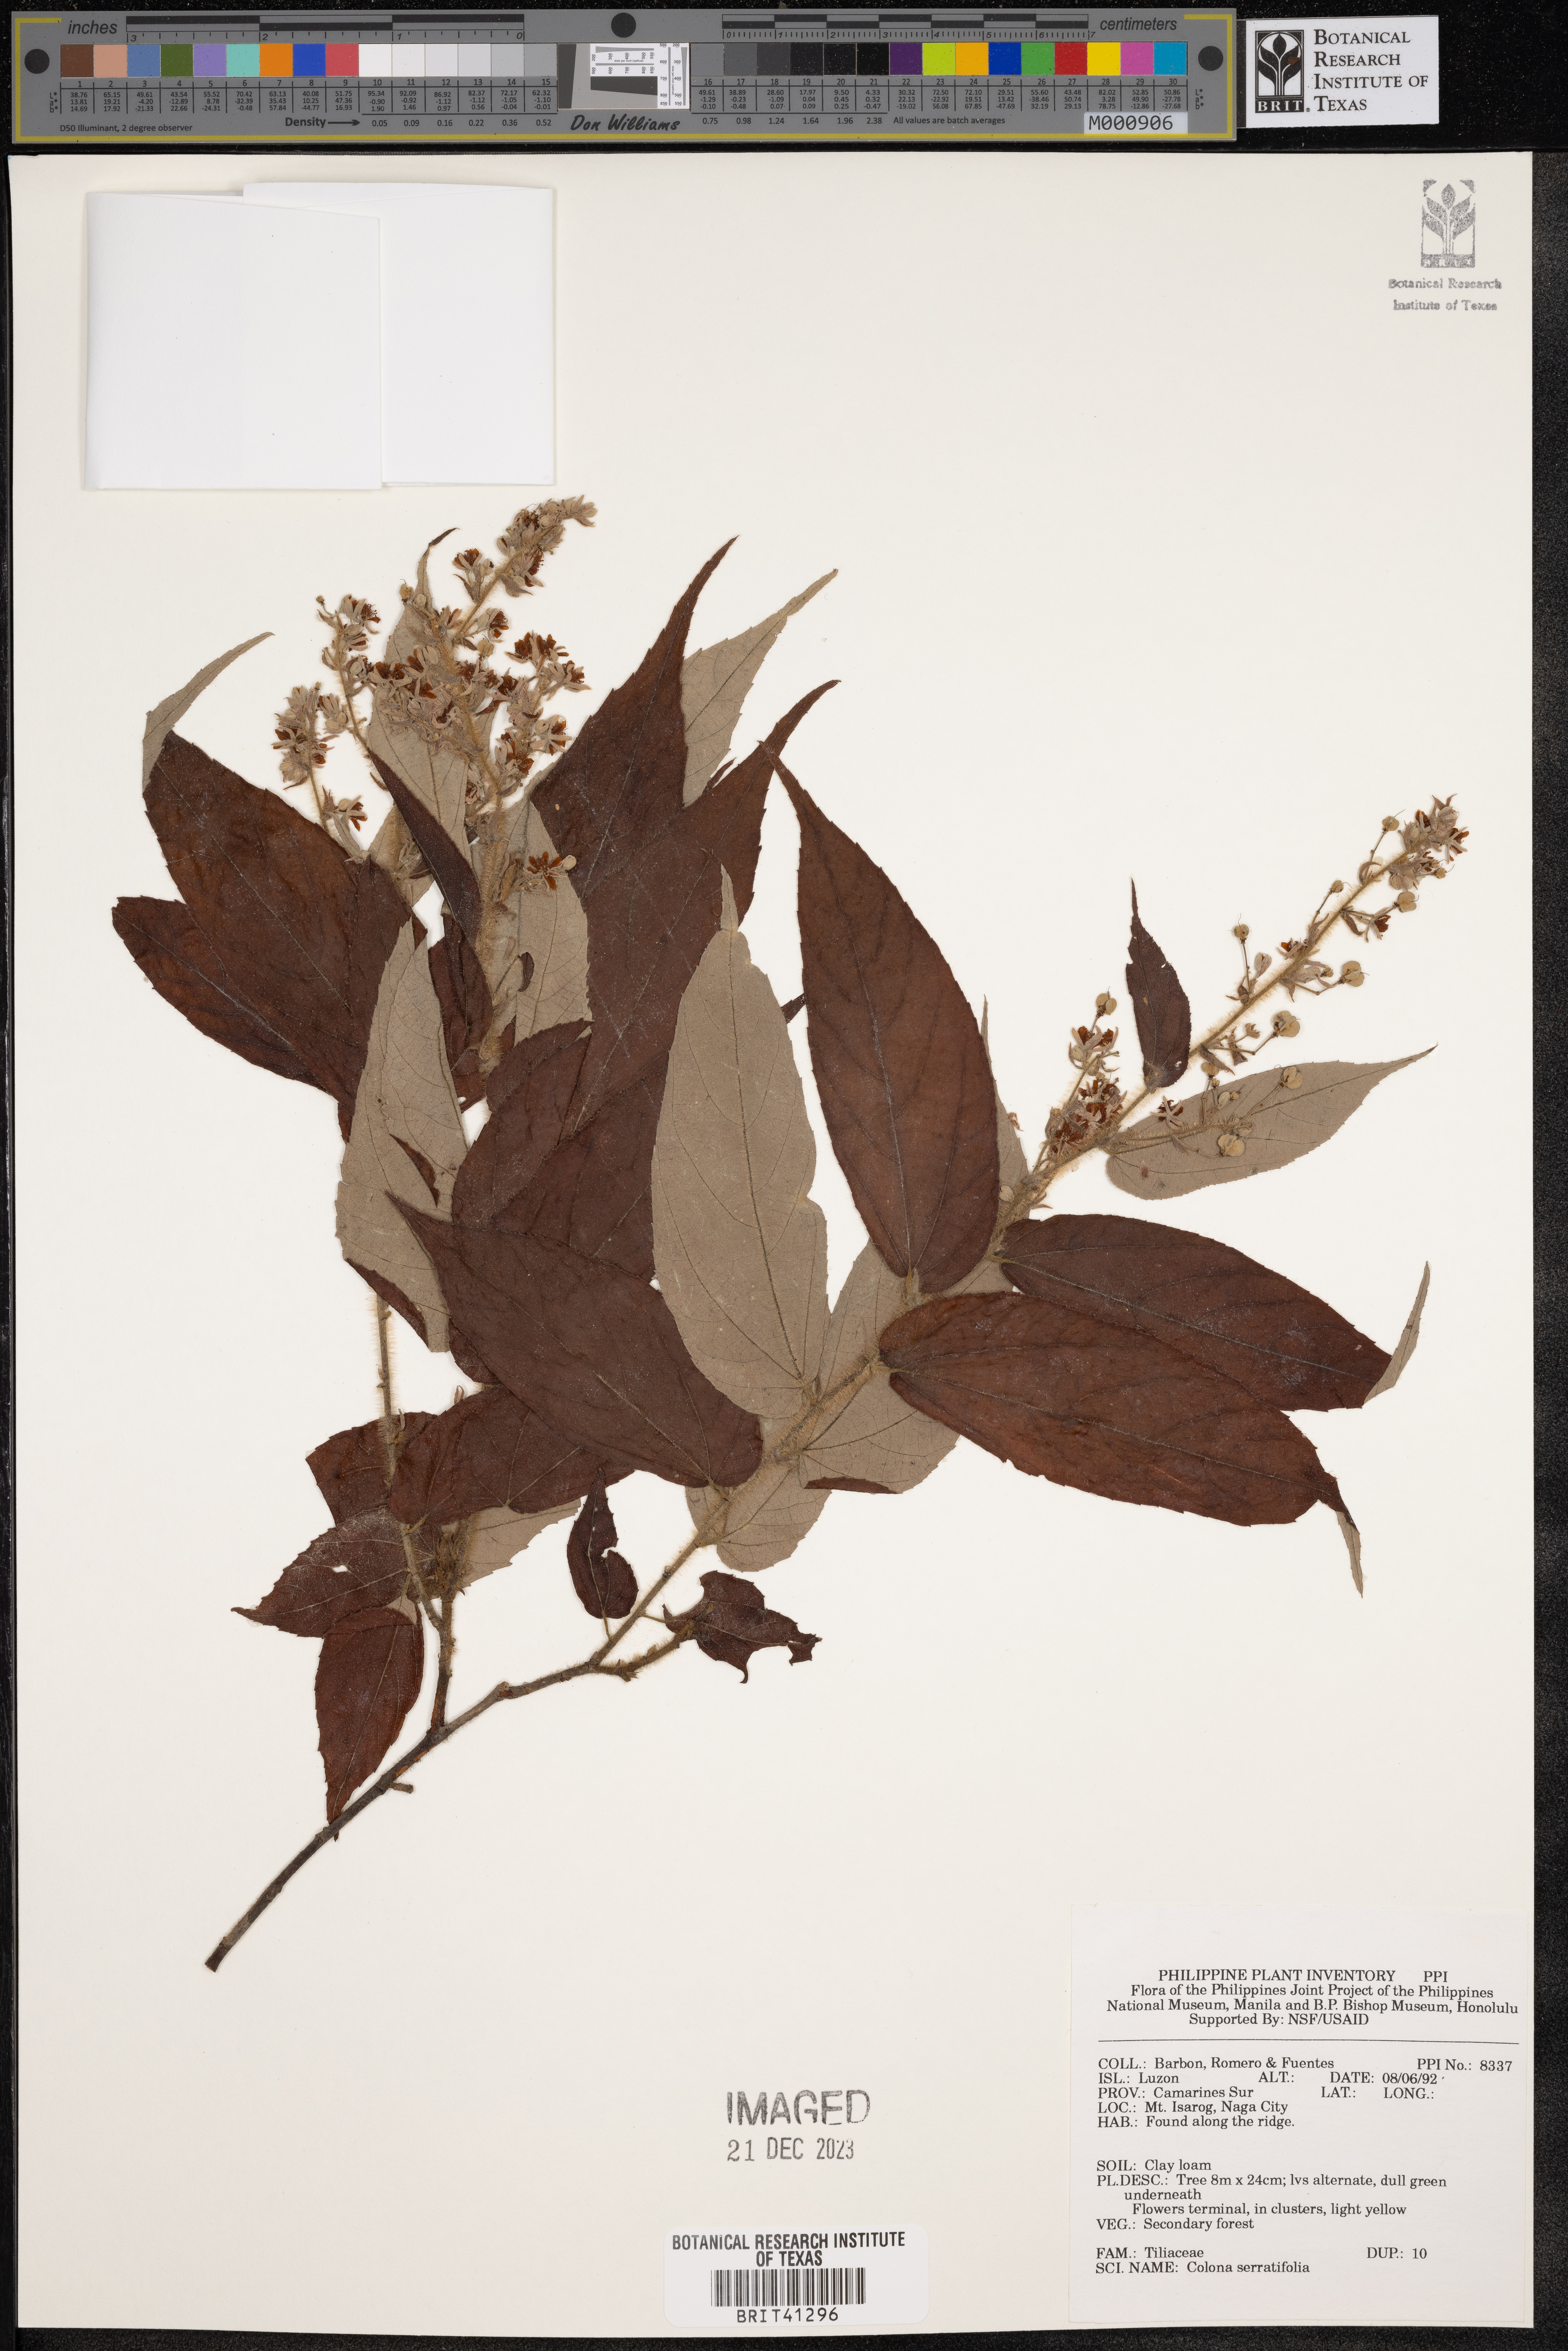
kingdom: Plantae
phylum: Tracheophyta
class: Magnoliopsida
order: Malvales
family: Malvaceae
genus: Colona
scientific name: Colona serratifolia
